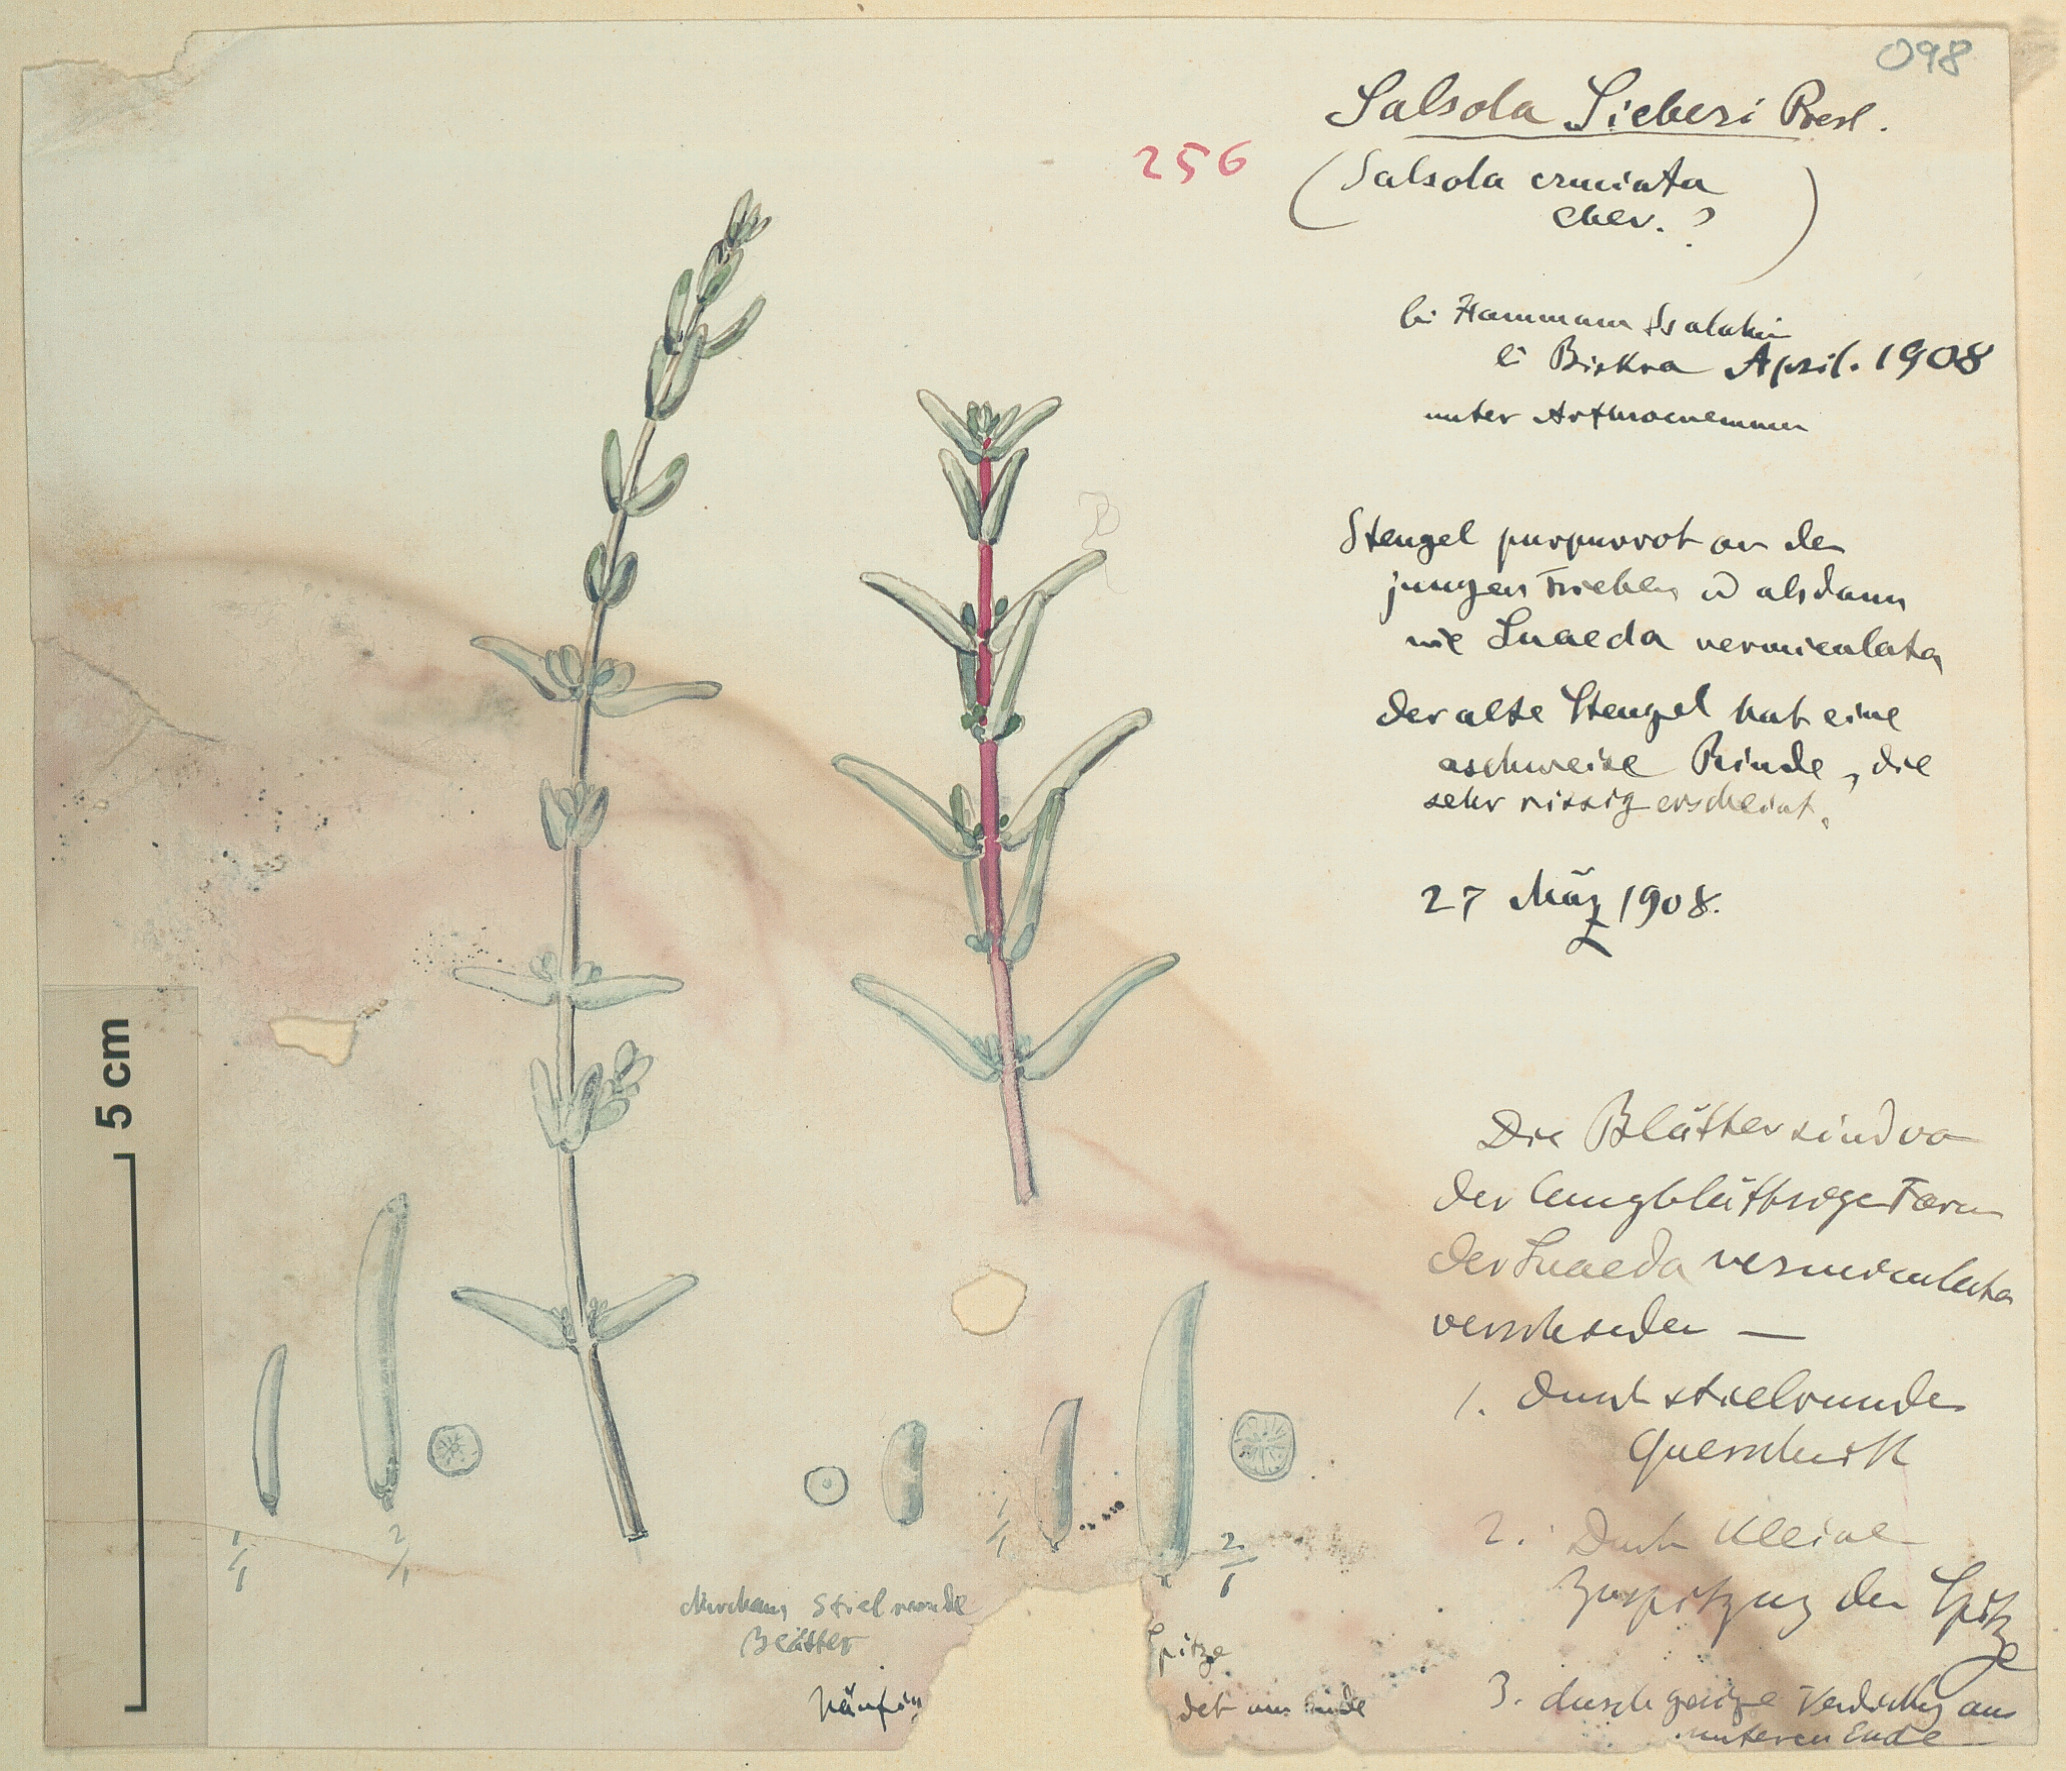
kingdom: Plantae
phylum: Tracheophyta
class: Magnoliopsida
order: Caryophyllales
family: Amaranthaceae
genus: Soda
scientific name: Soda
